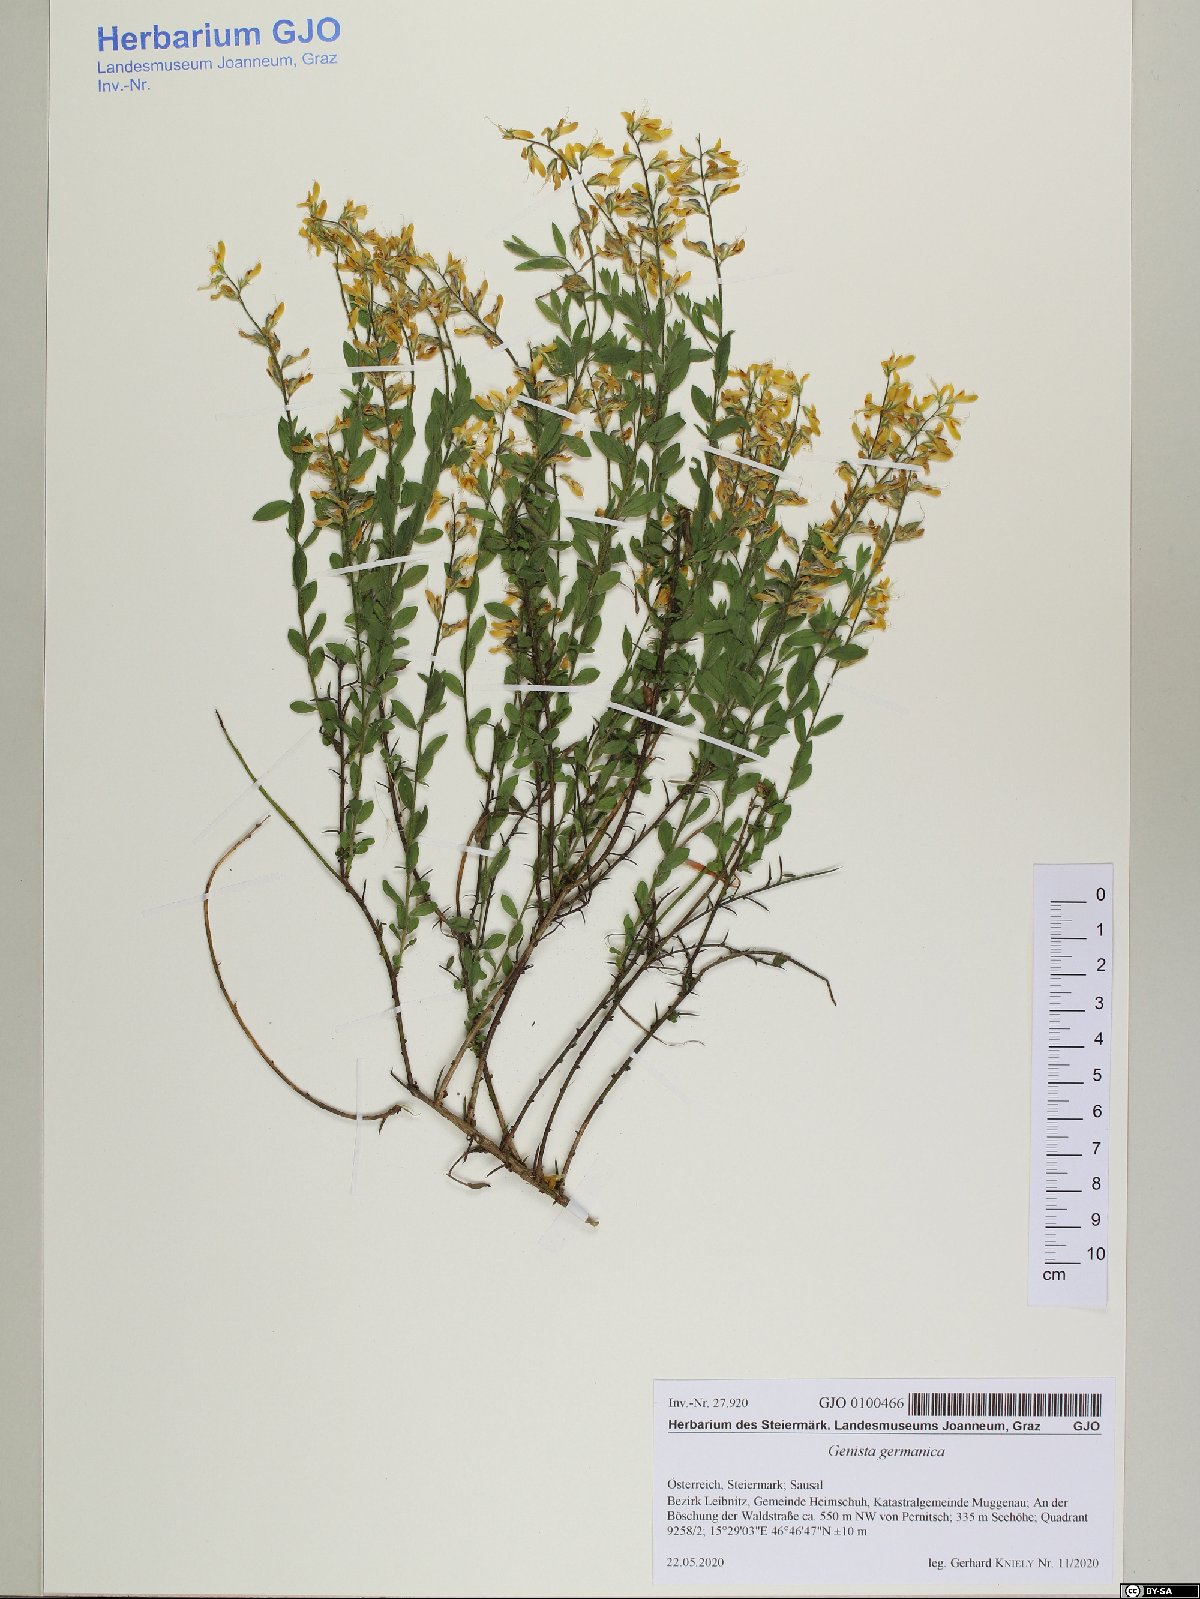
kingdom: Plantae
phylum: Tracheophyta
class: Magnoliopsida
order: Fabales
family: Fabaceae
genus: Genista
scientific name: Genista germanica
